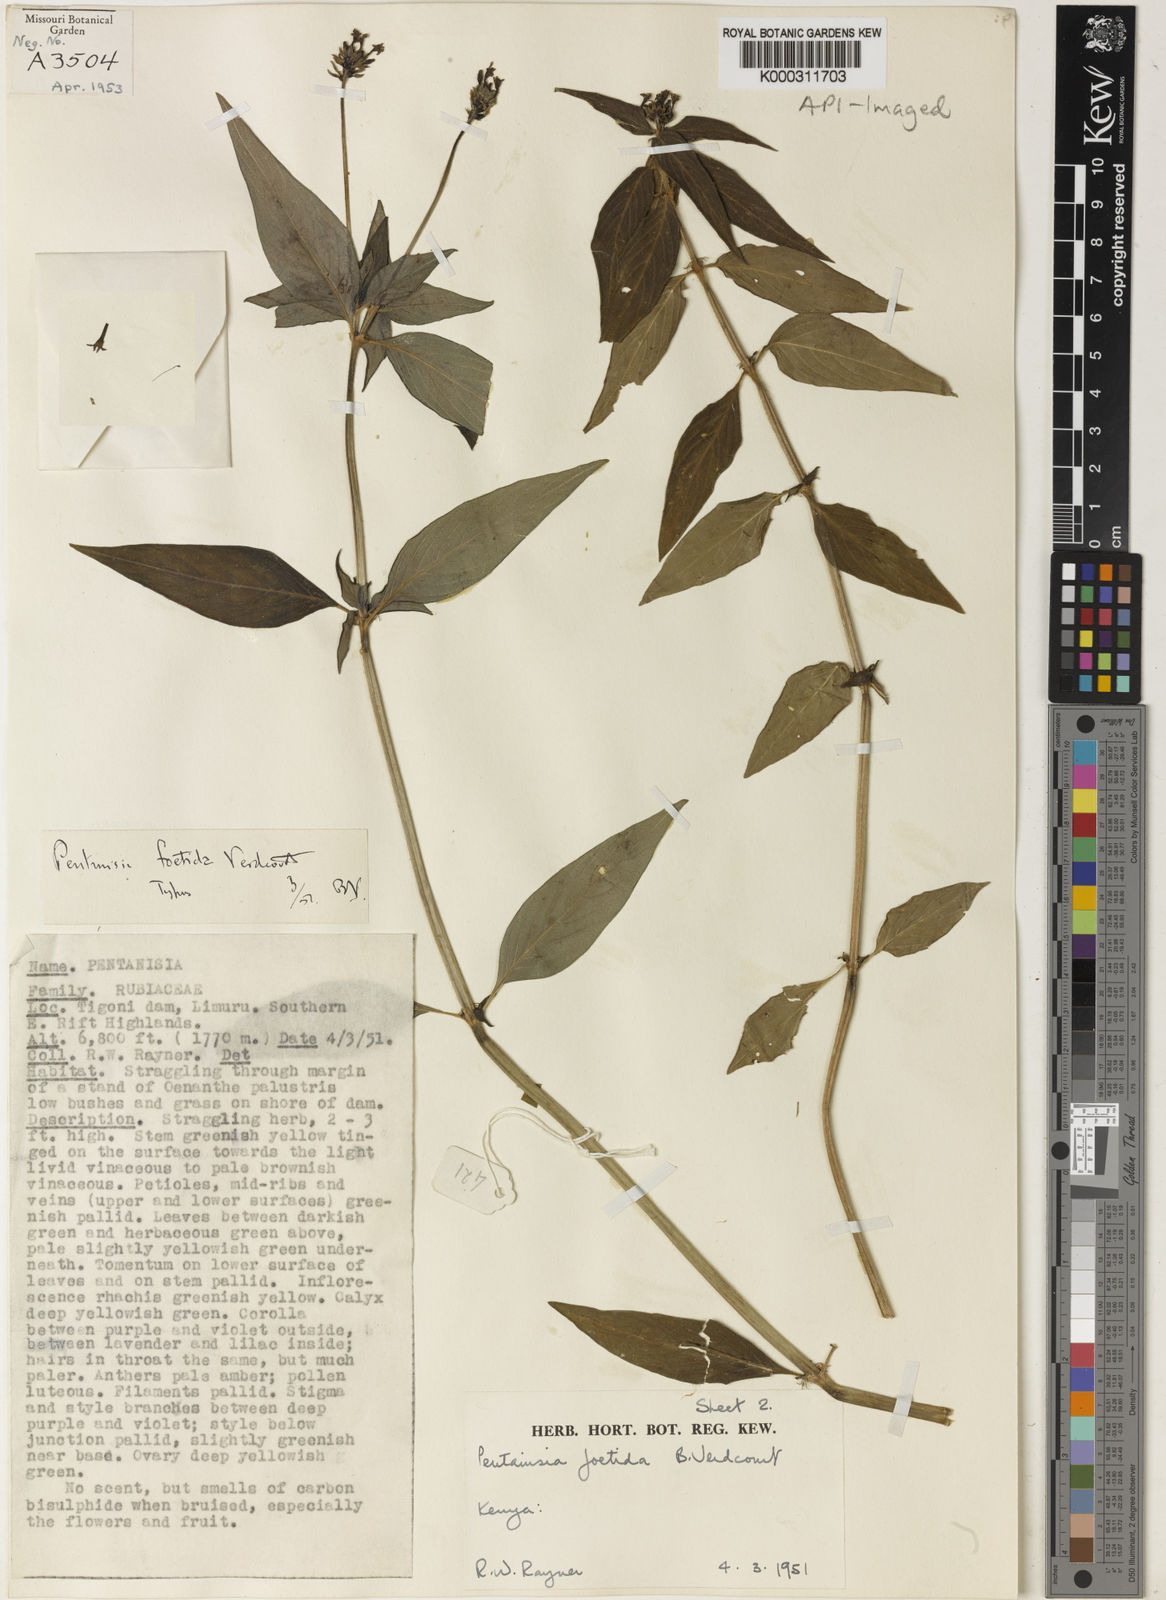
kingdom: Plantae
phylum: Tracheophyta
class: Magnoliopsida
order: Gentianales
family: Rubiaceae
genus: Pentanisia
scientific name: Pentanisia foetida
